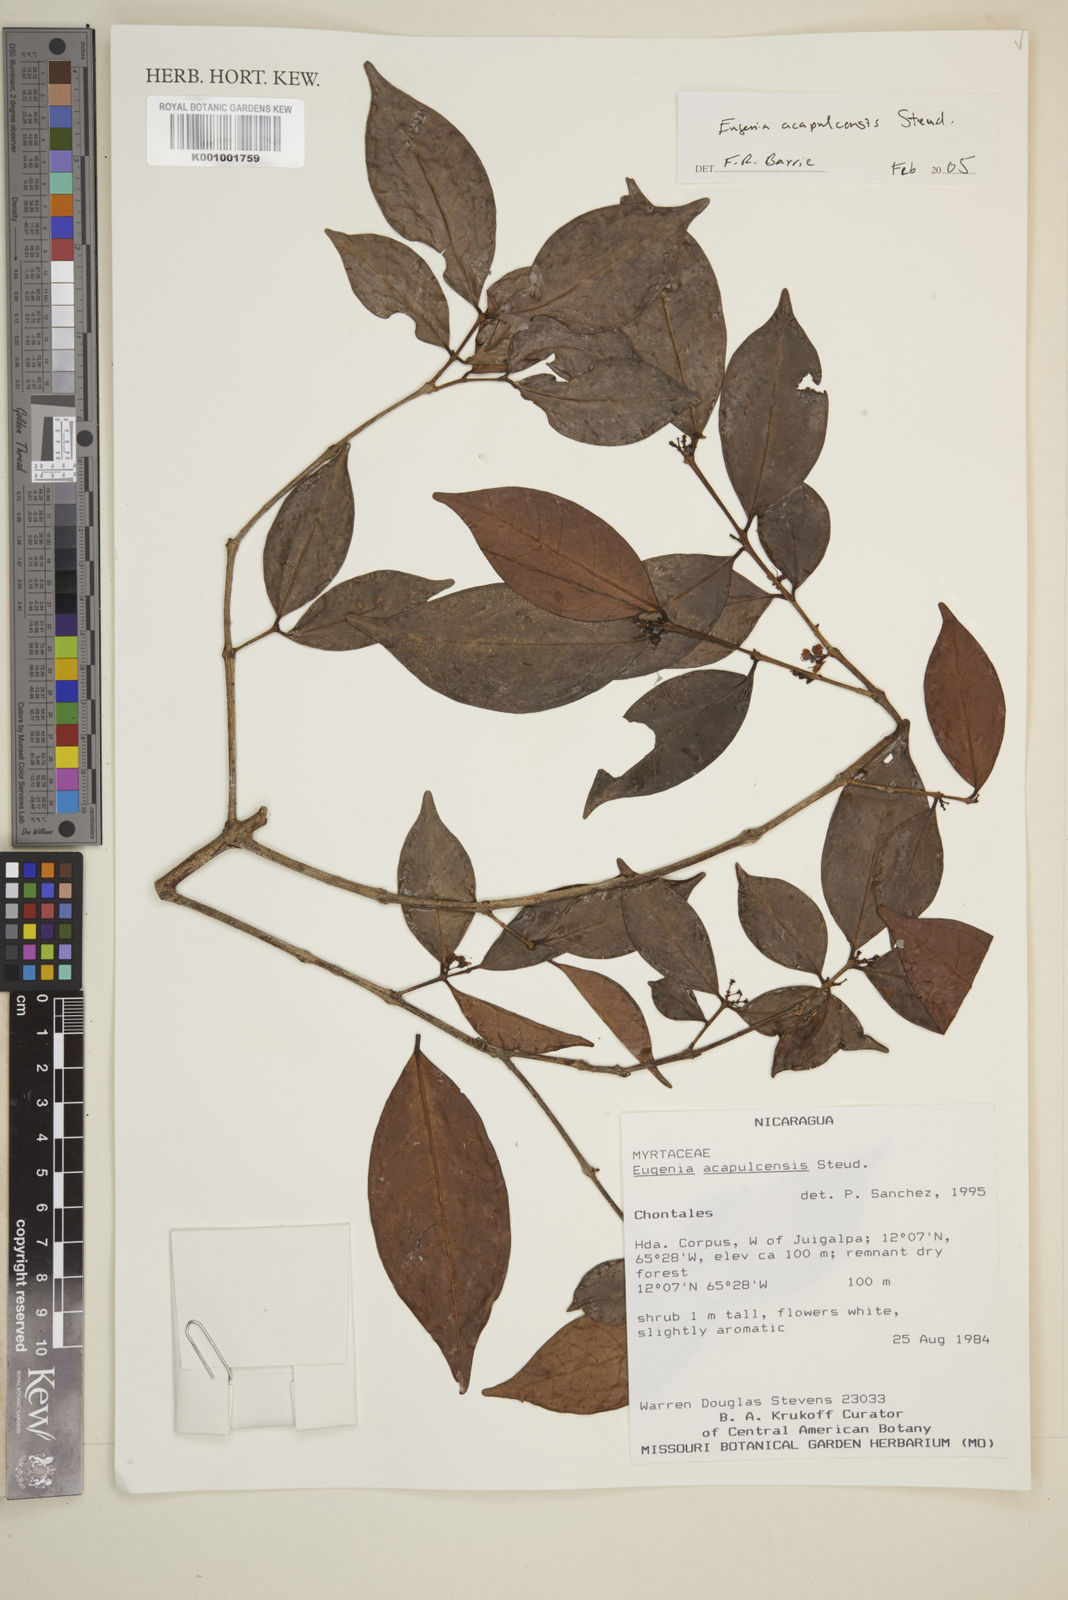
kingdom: Plantae
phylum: Tracheophyta
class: Magnoliopsida
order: Myrtales
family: Myrtaceae
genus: Eugenia
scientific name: Eugenia acapulcensis
